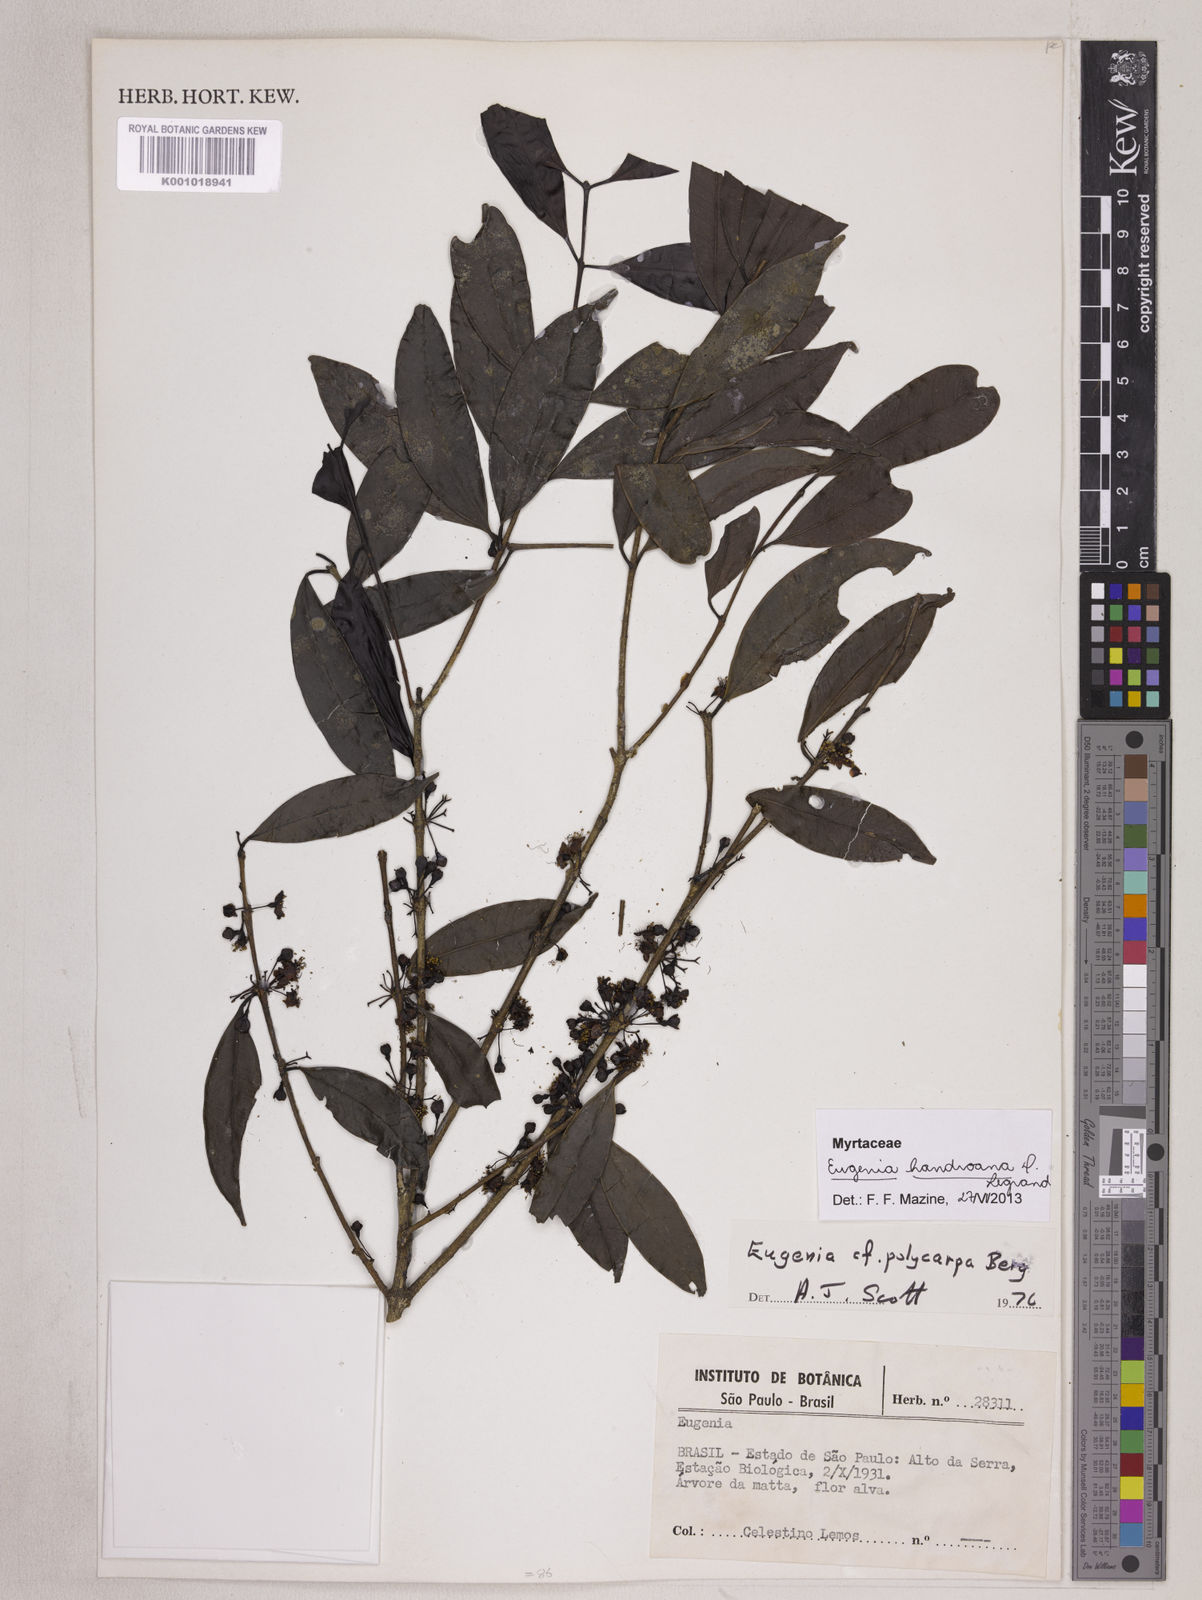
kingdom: Plantae
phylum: Tracheophyta
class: Magnoliopsida
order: Myrtales
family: Myrtaceae
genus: Eugenia
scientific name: Eugenia handroana
